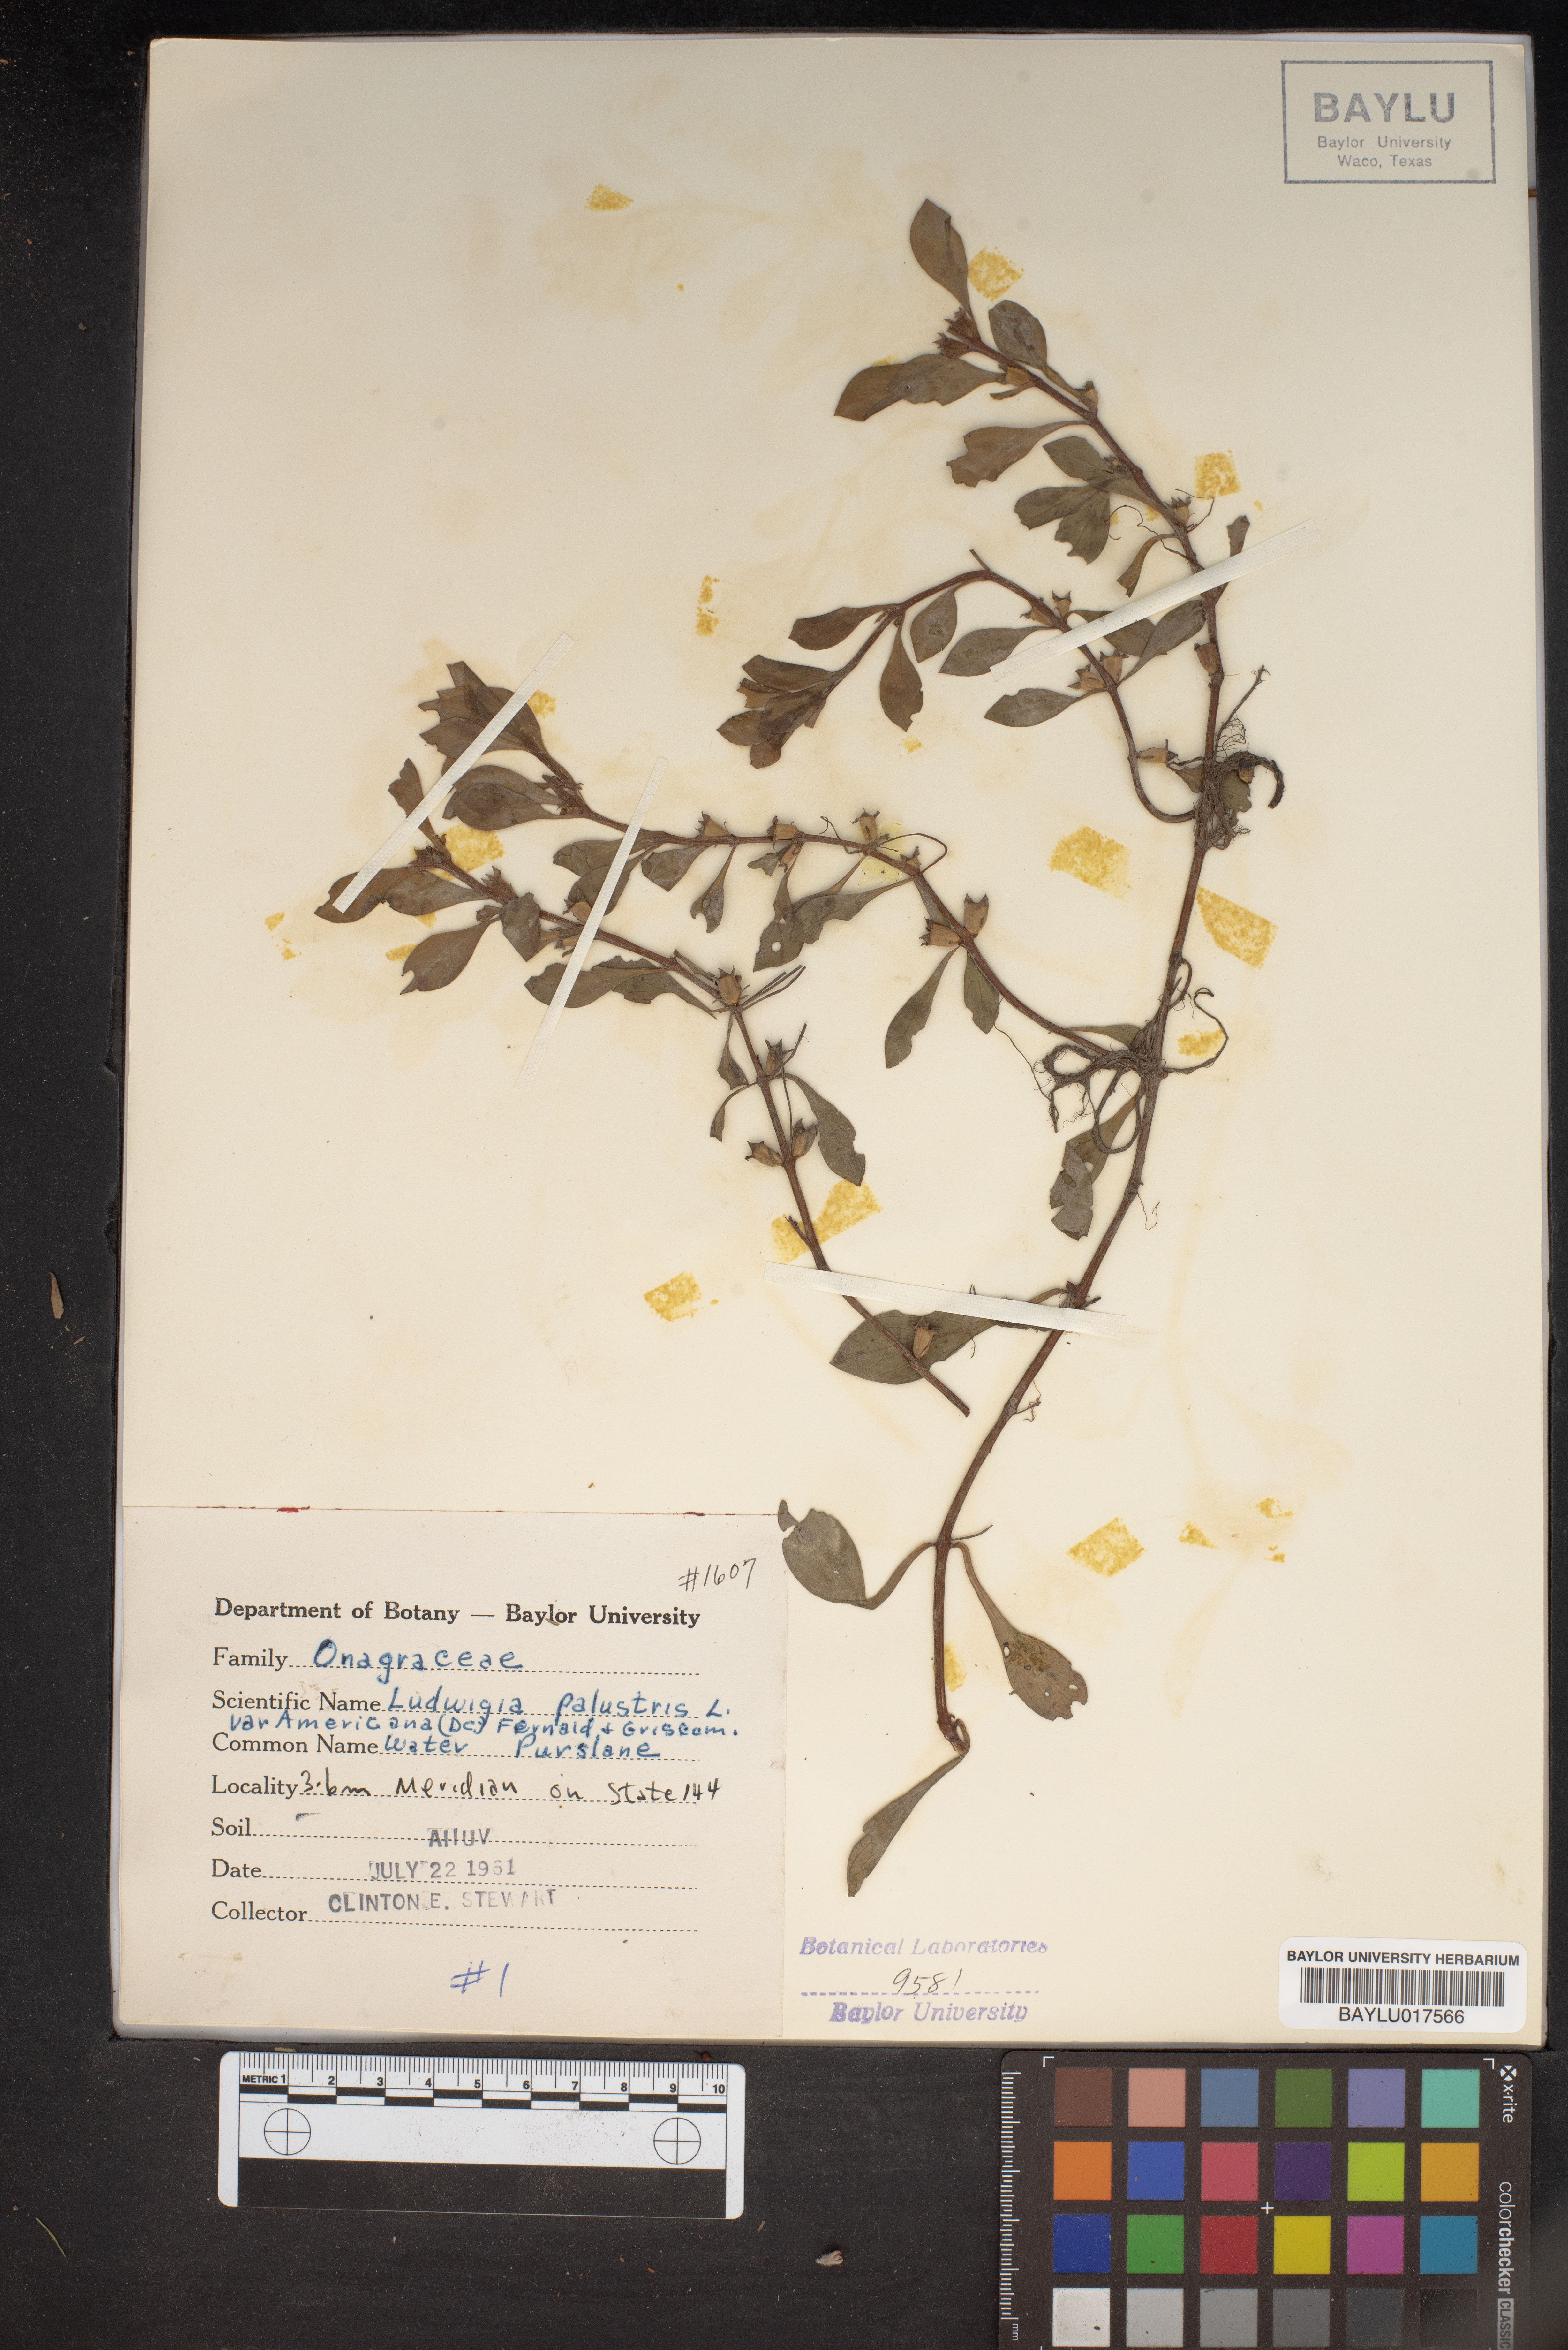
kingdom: Plantae
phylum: Tracheophyta
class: Magnoliopsida
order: Myrtales
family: Onagraceae
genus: Ludwigia
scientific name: Ludwigia palustris
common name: Hampshire-purslane
